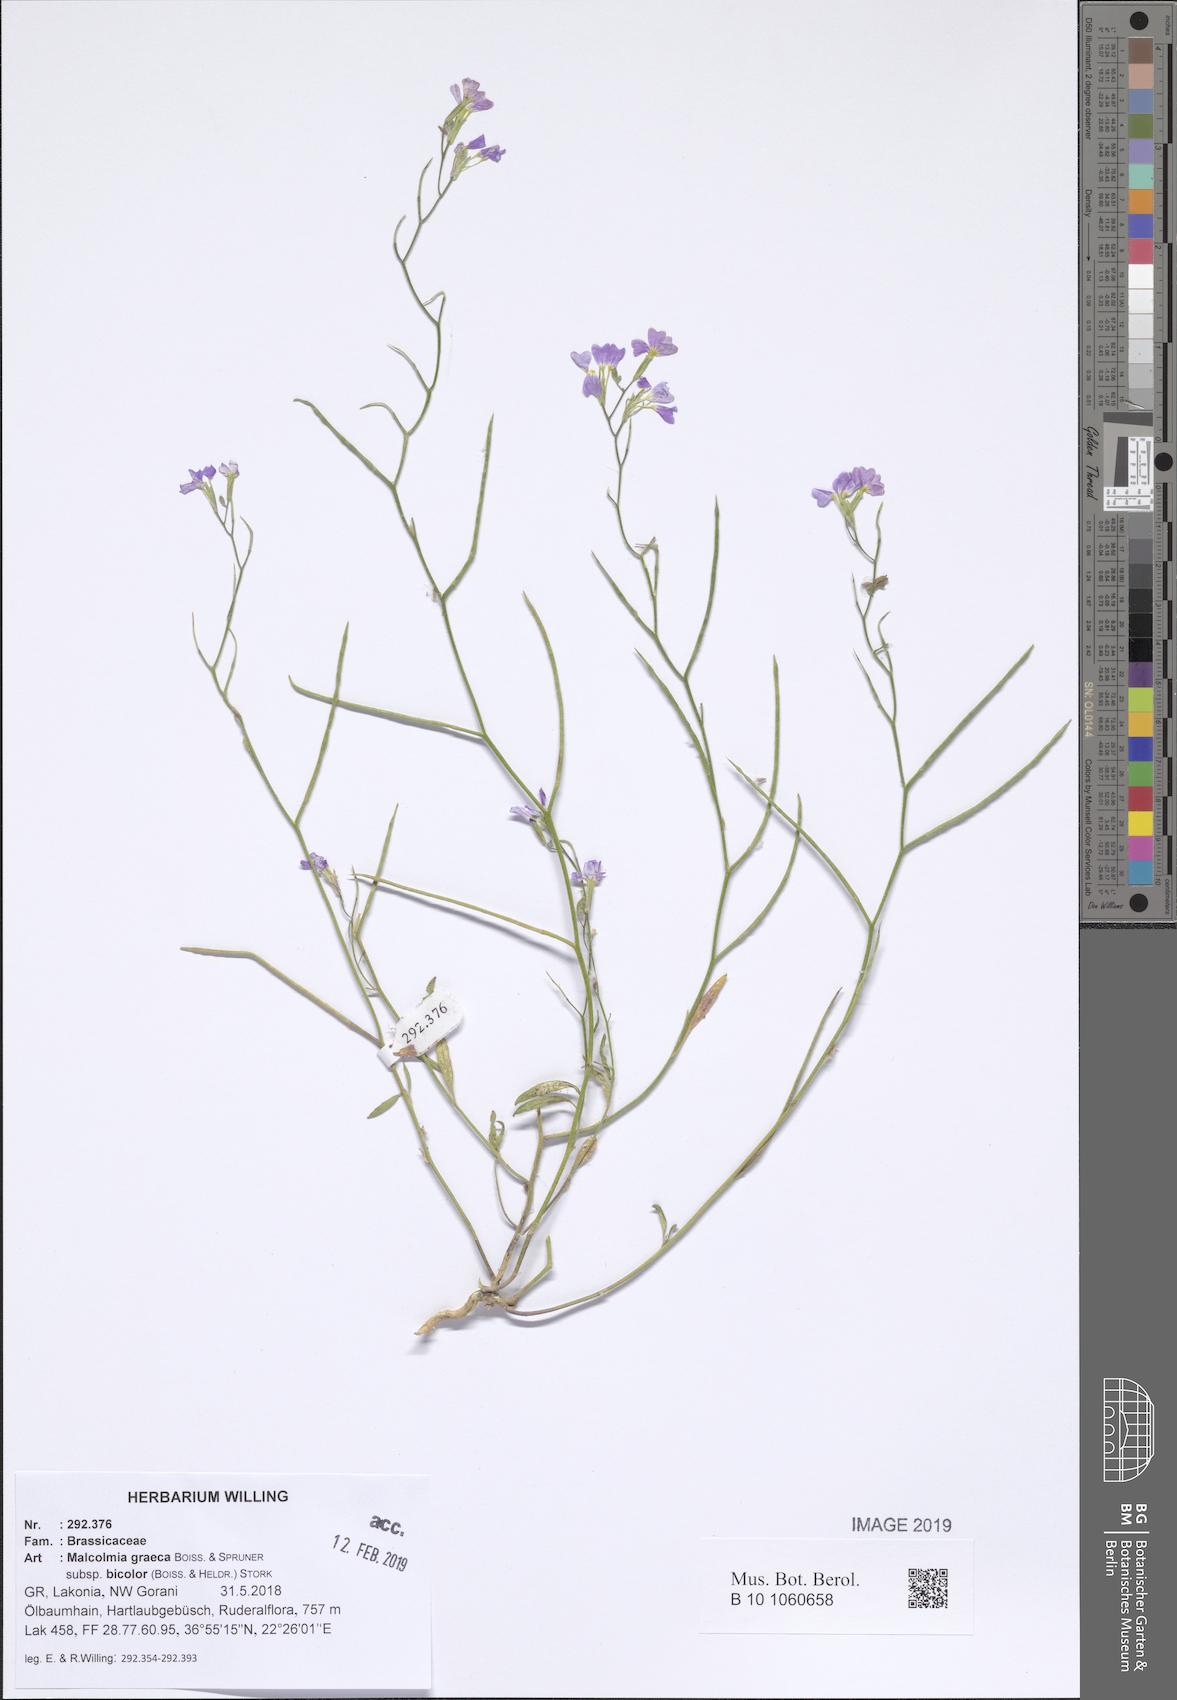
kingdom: Plantae
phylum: Tracheophyta
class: Magnoliopsida
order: Brassicales
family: Brassicaceae
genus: Malcolmia
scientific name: Malcolmia graeca
